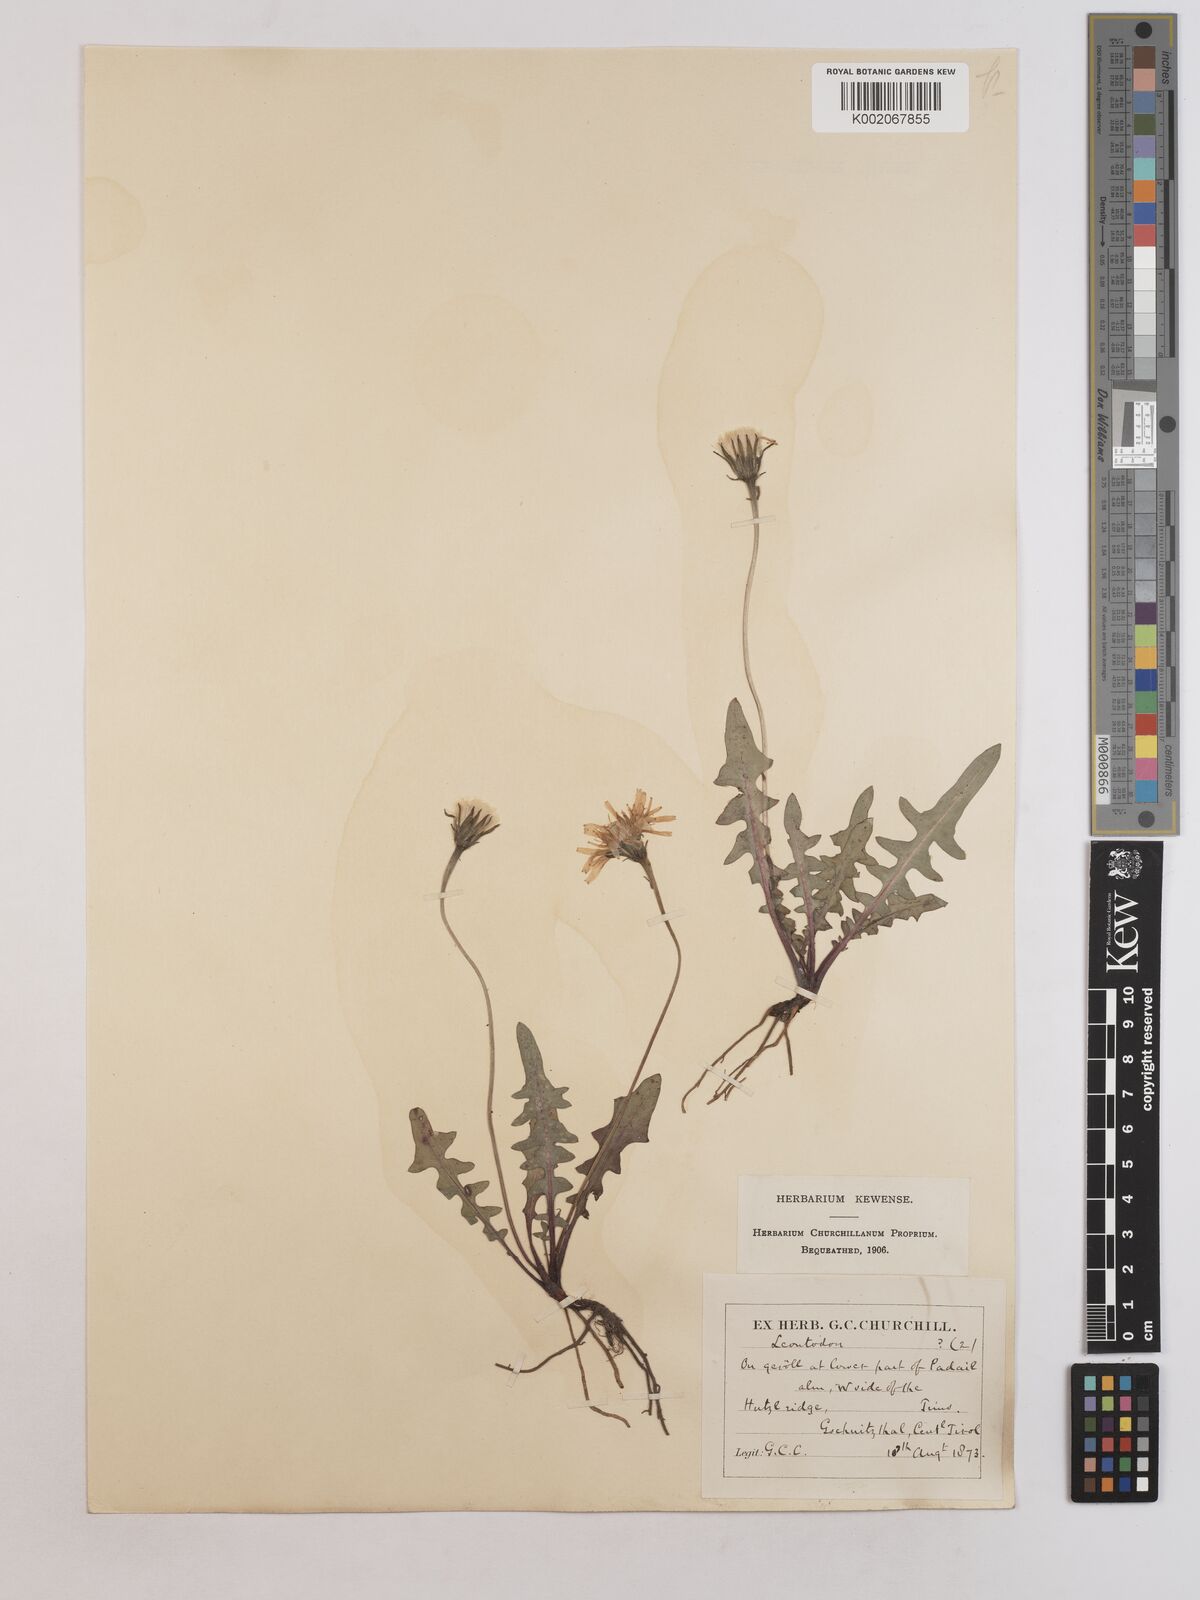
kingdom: Plantae
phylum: Tracheophyta
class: Magnoliopsida
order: Asterales
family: Asteraceae
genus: Leontodon
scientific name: Leontodon hispidus
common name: Rough hawkbit
